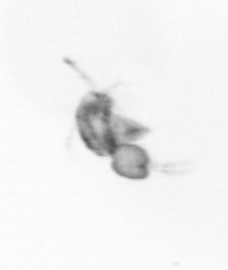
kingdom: Animalia
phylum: Arthropoda
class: Copepoda
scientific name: Copepoda
